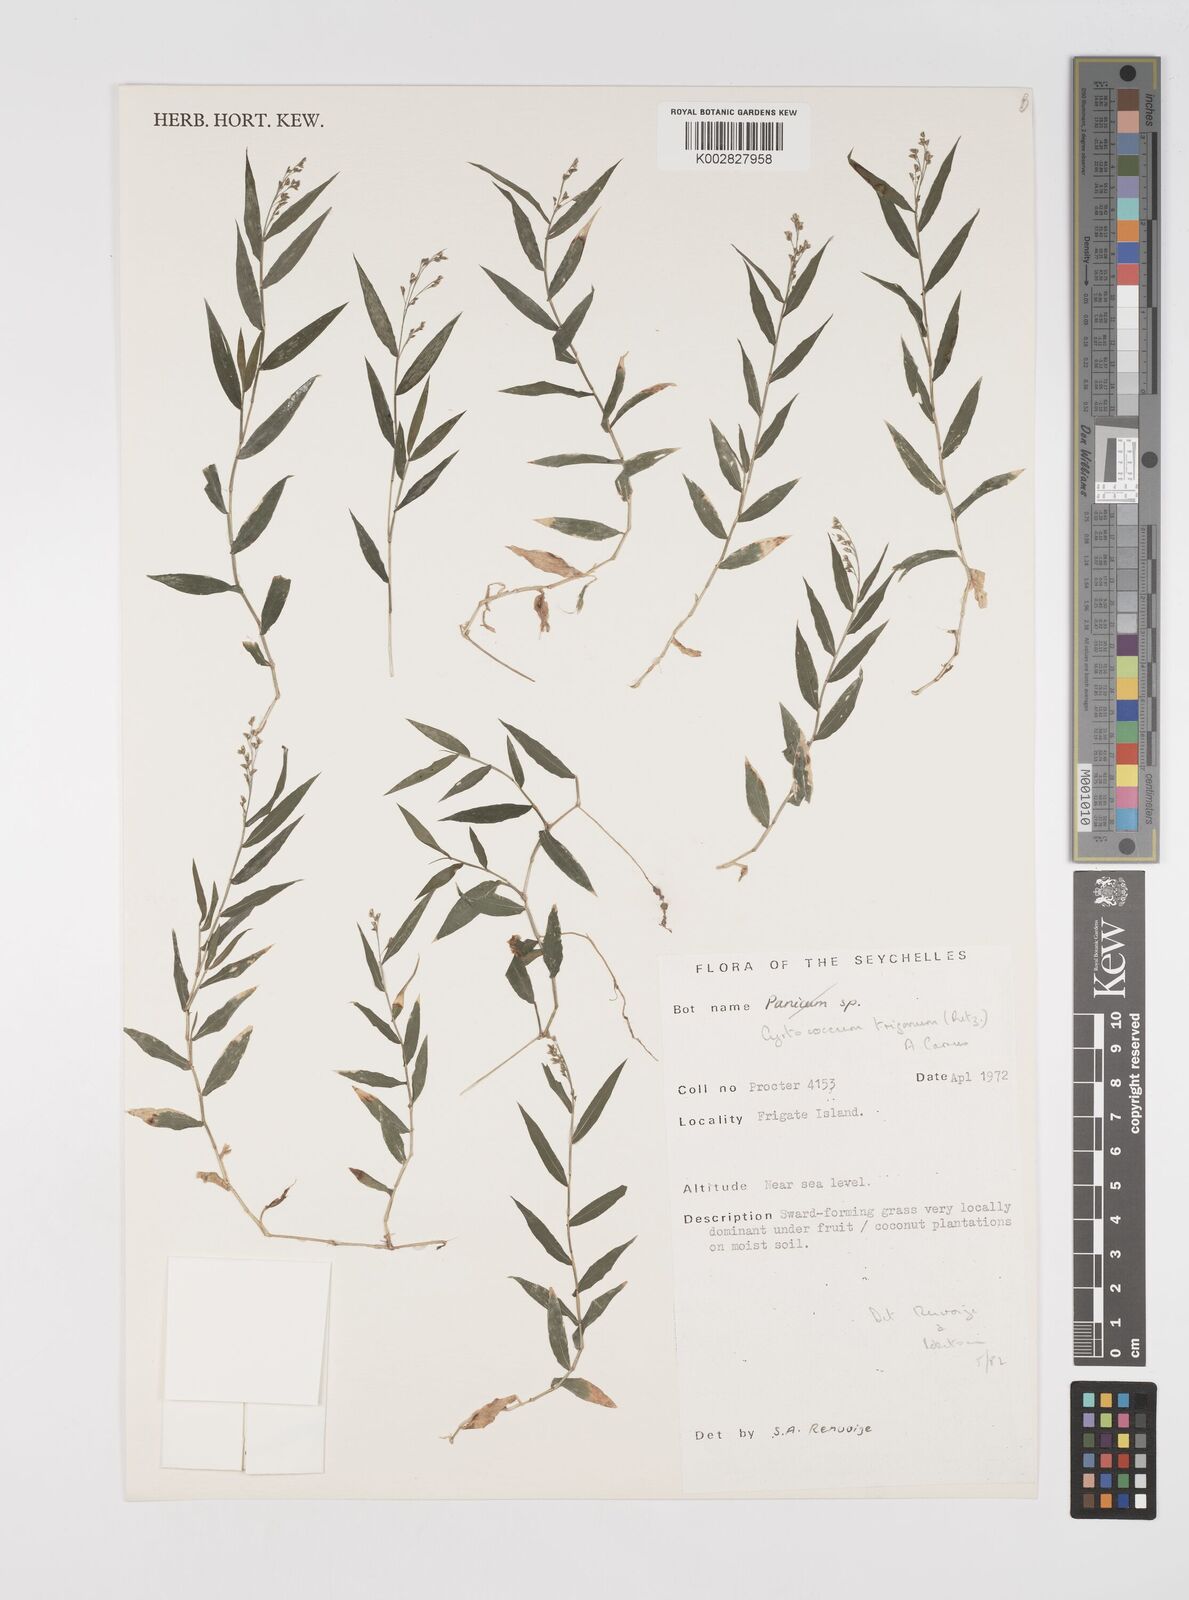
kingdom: Plantae
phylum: Tracheophyta
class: Liliopsida
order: Poales
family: Poaceae
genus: Cyrtococcum
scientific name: Cyrtococcum trigonum
